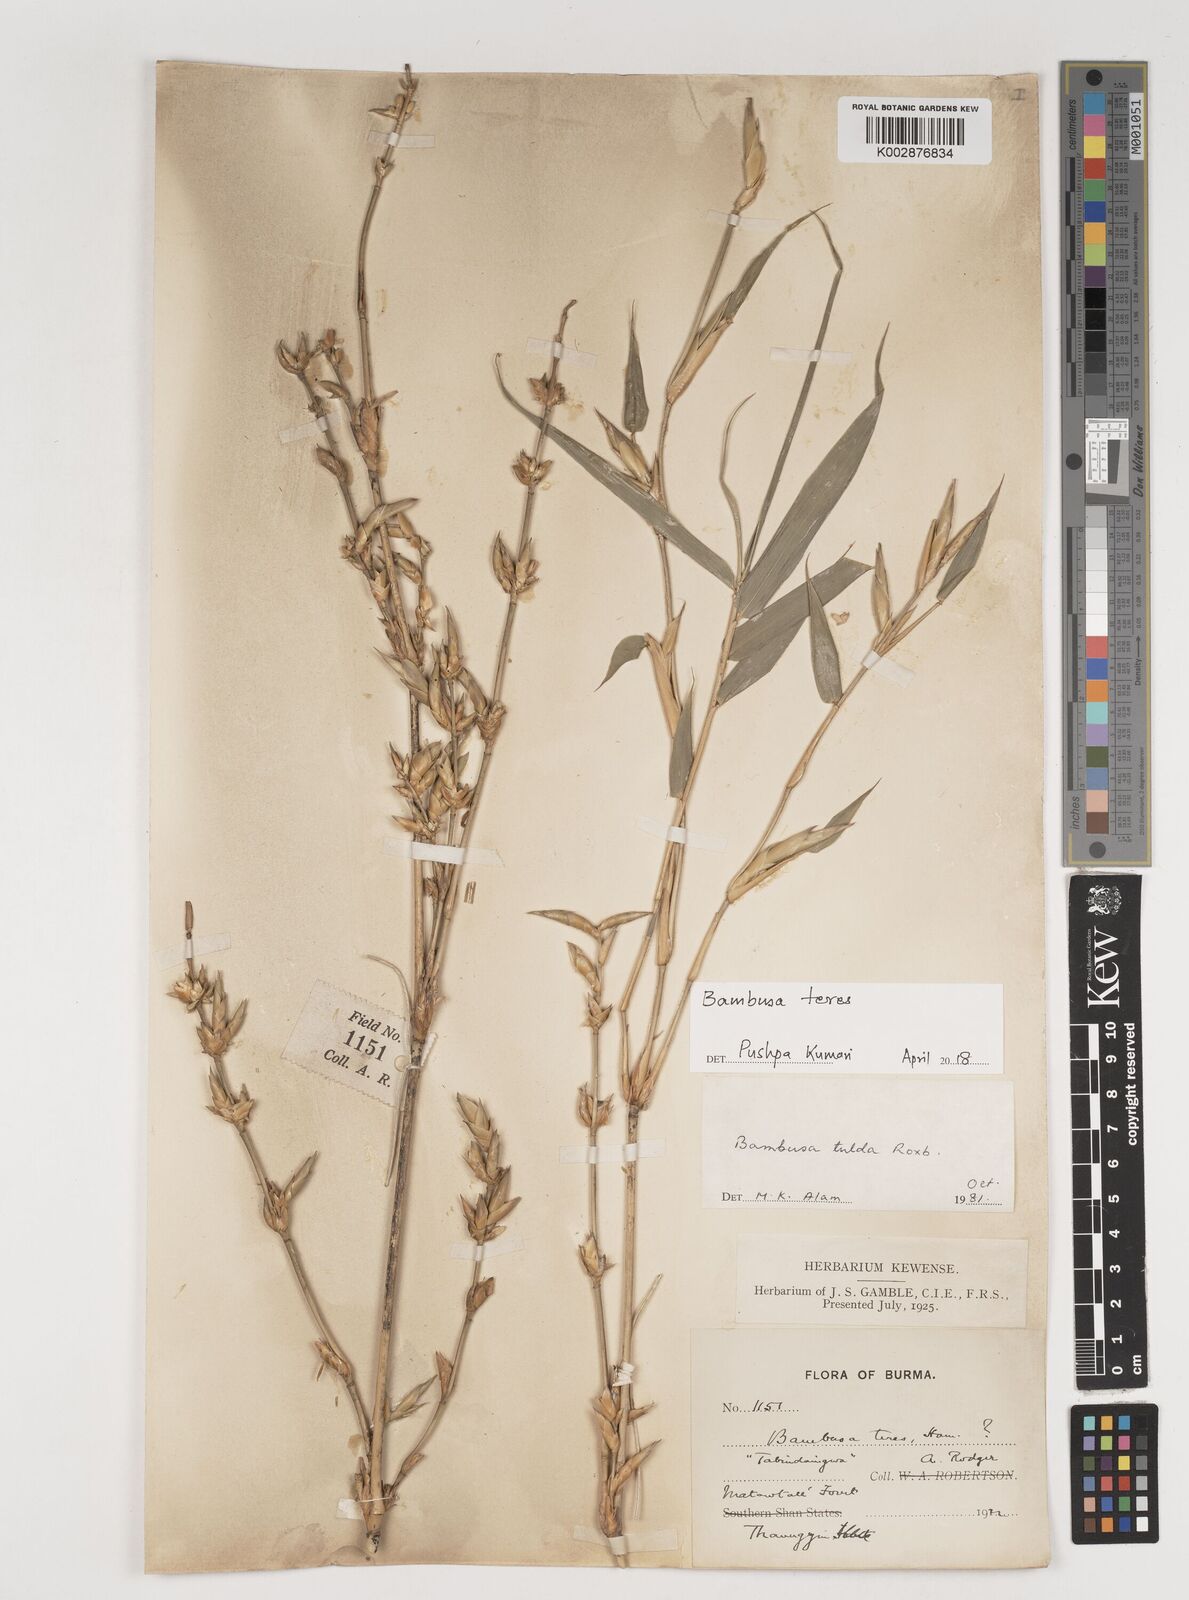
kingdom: Plantae
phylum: Tracheophyta
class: Liliopsida
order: Poales
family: Poaceae
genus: Bambusa
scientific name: Bambusa teres
